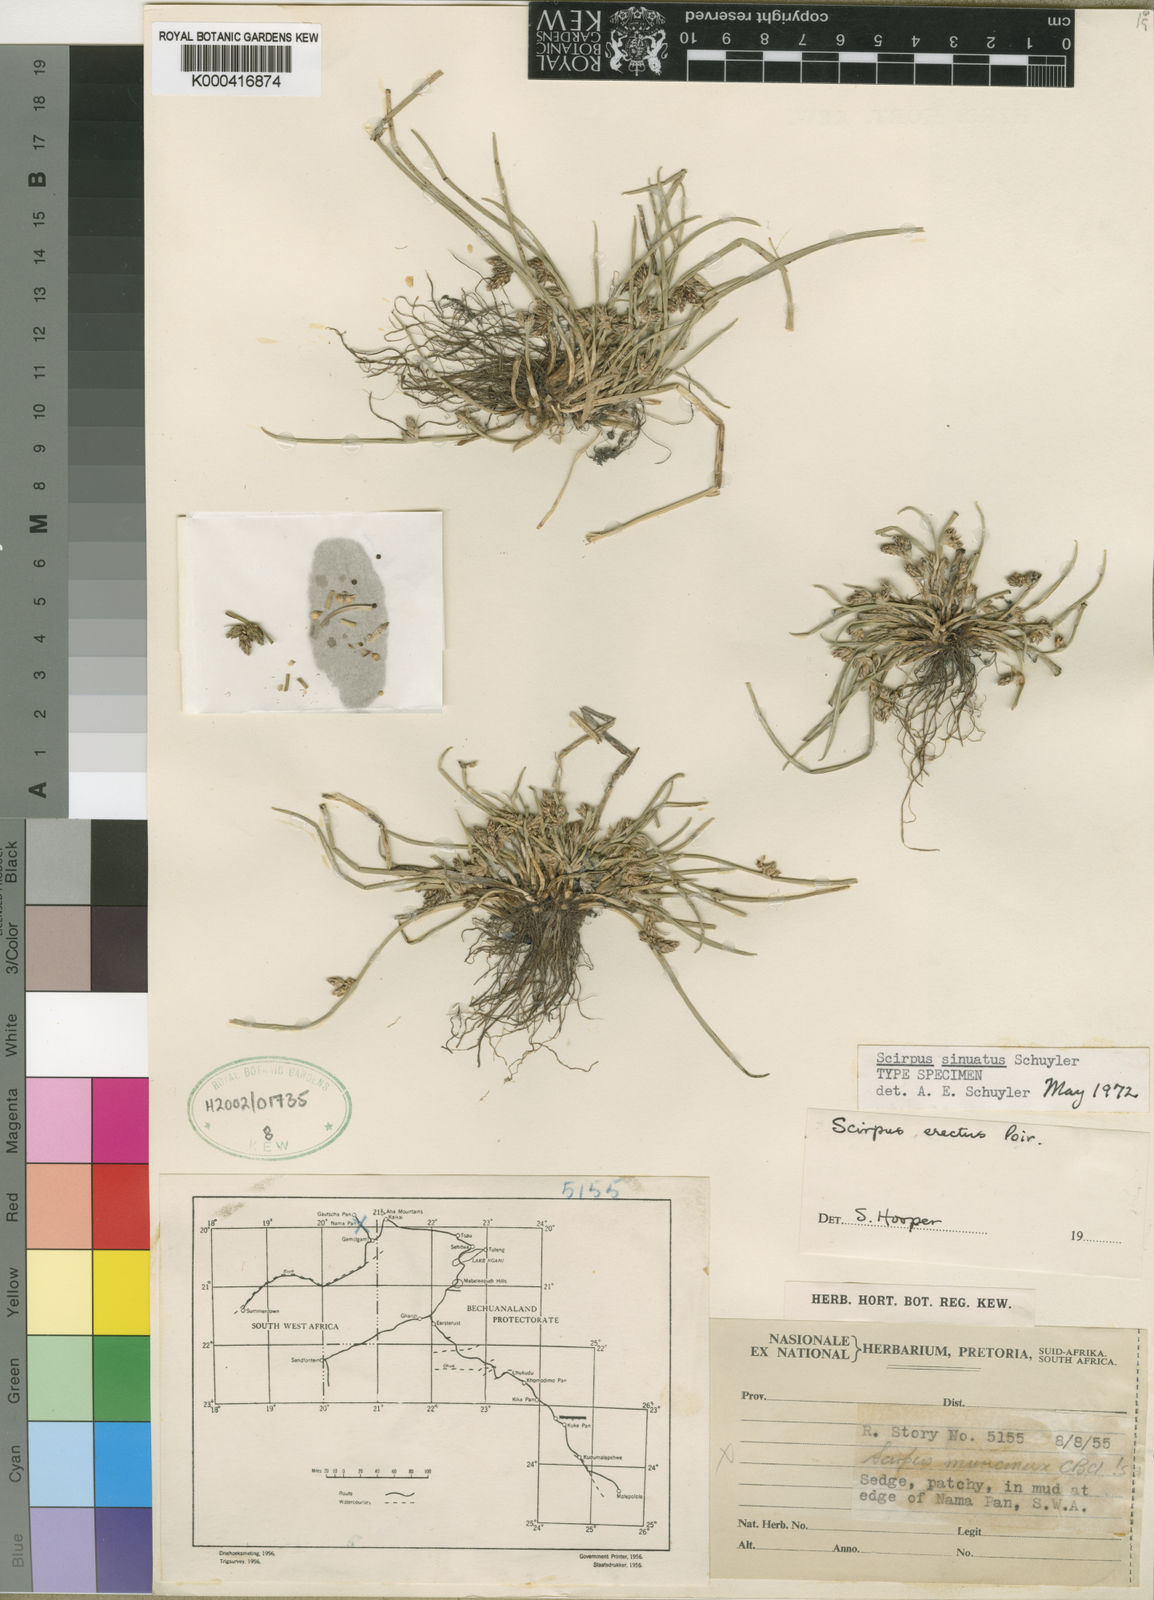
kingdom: Plantae
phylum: Tracheophyta
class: Liliopsida
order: Poales
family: Cyperaceae
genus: Schoenoplectiella
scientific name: Schoenoplectiella erecta
